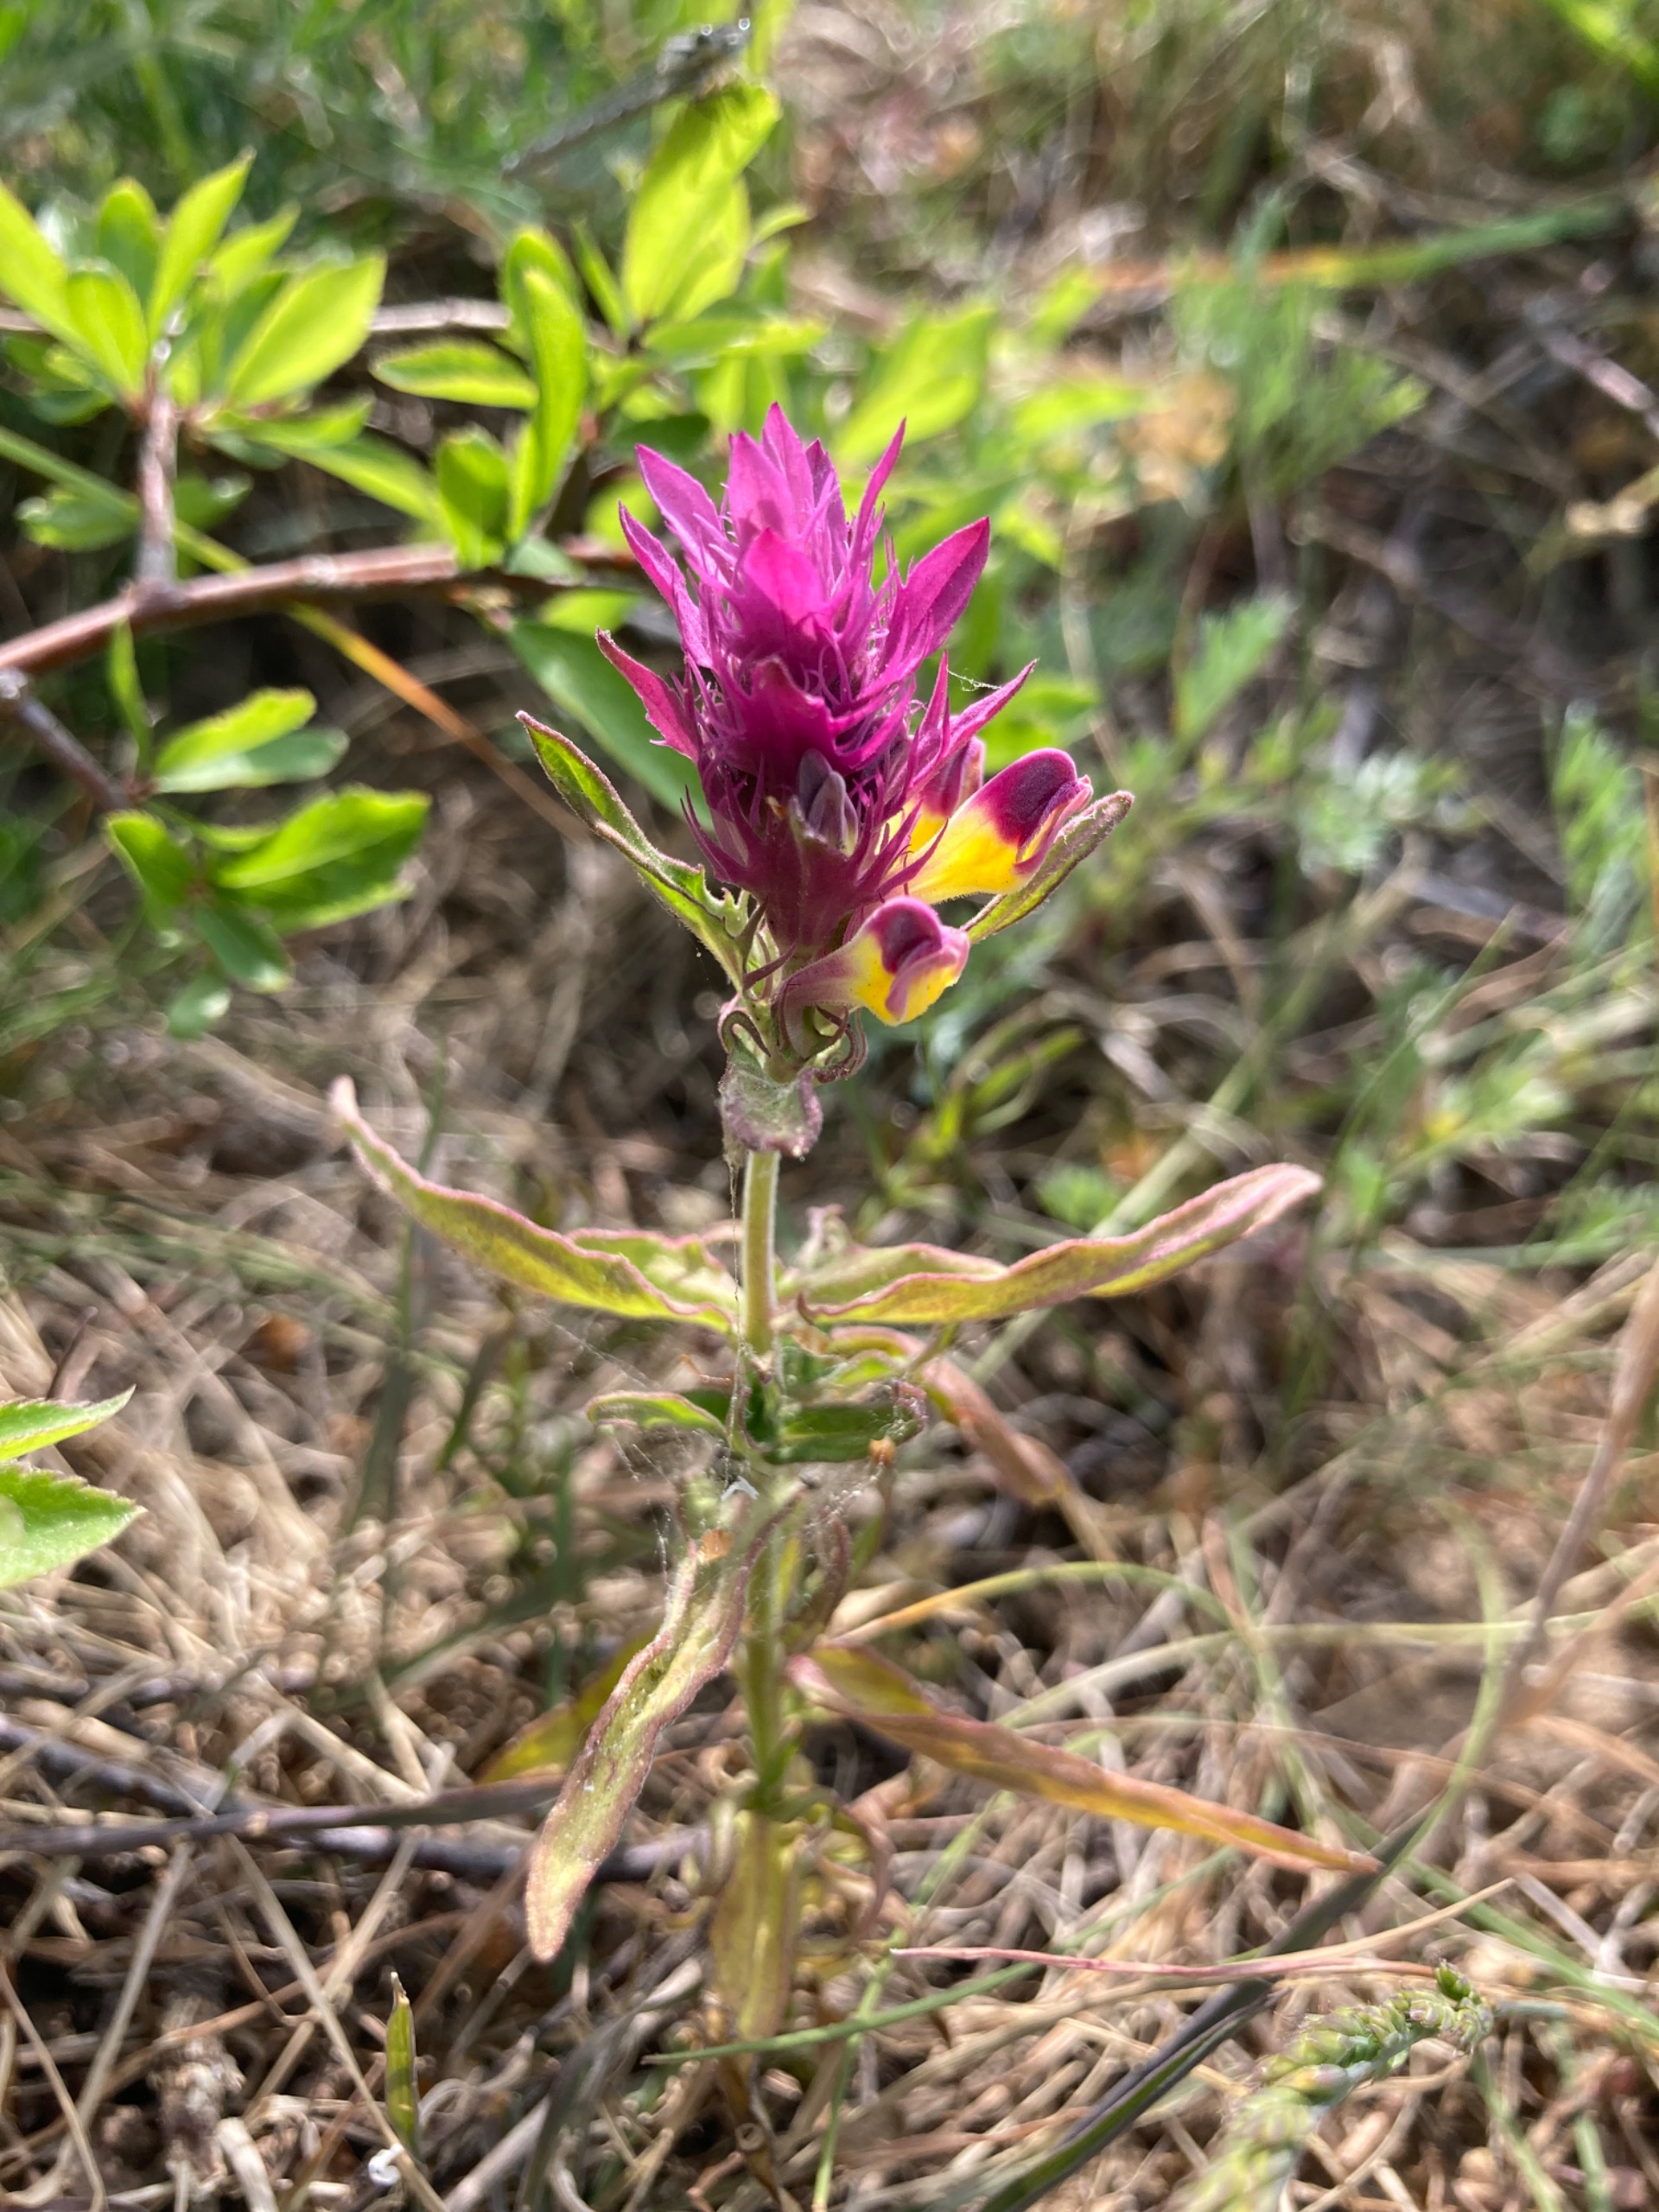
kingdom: Plantae
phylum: Tracheophyta
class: Magnoliopsida
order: Lamiales
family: Orobanchaceae
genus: Melampyrum
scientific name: Melampyrum arvense
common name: Ager-kohvede
